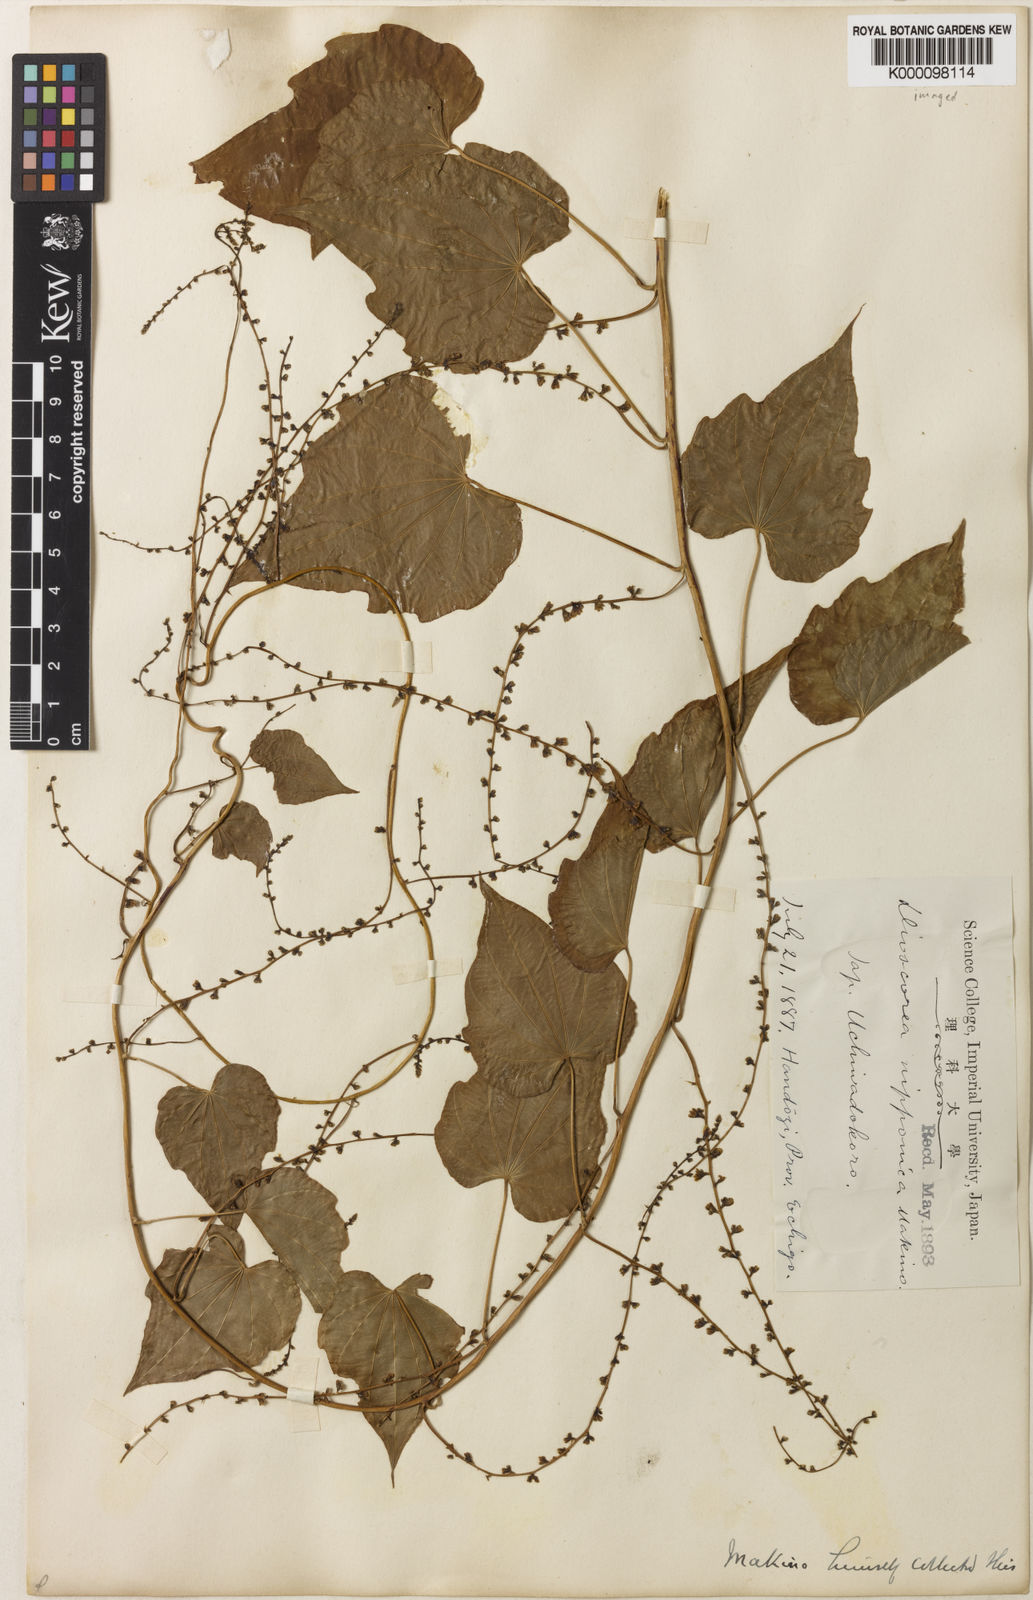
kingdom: Plantae
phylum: Tracheophyta
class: Liliopsida
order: Dioscoreales
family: Dioscoreaceae
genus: Dioscorea
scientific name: Dioscorea nipponica
